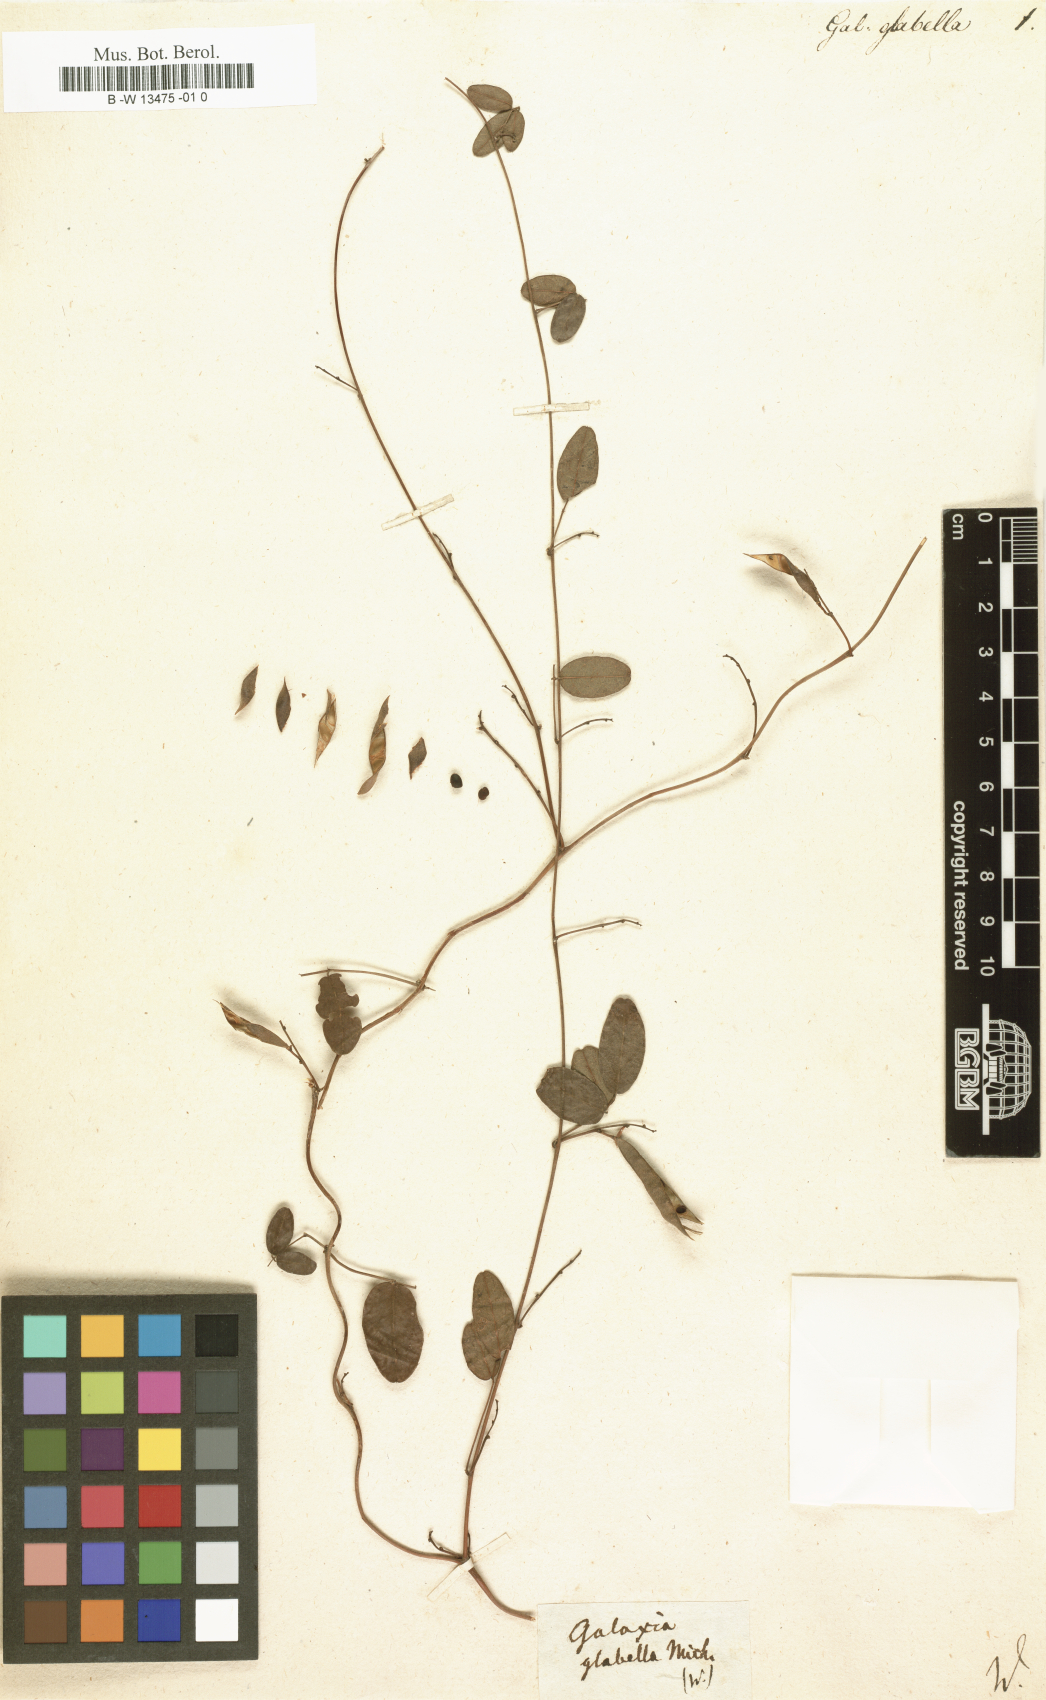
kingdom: Plantae
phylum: Tracheophyta
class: Magnoliopsida
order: Fabales
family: Fabaceae
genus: Galactia
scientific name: Galactia regularis
